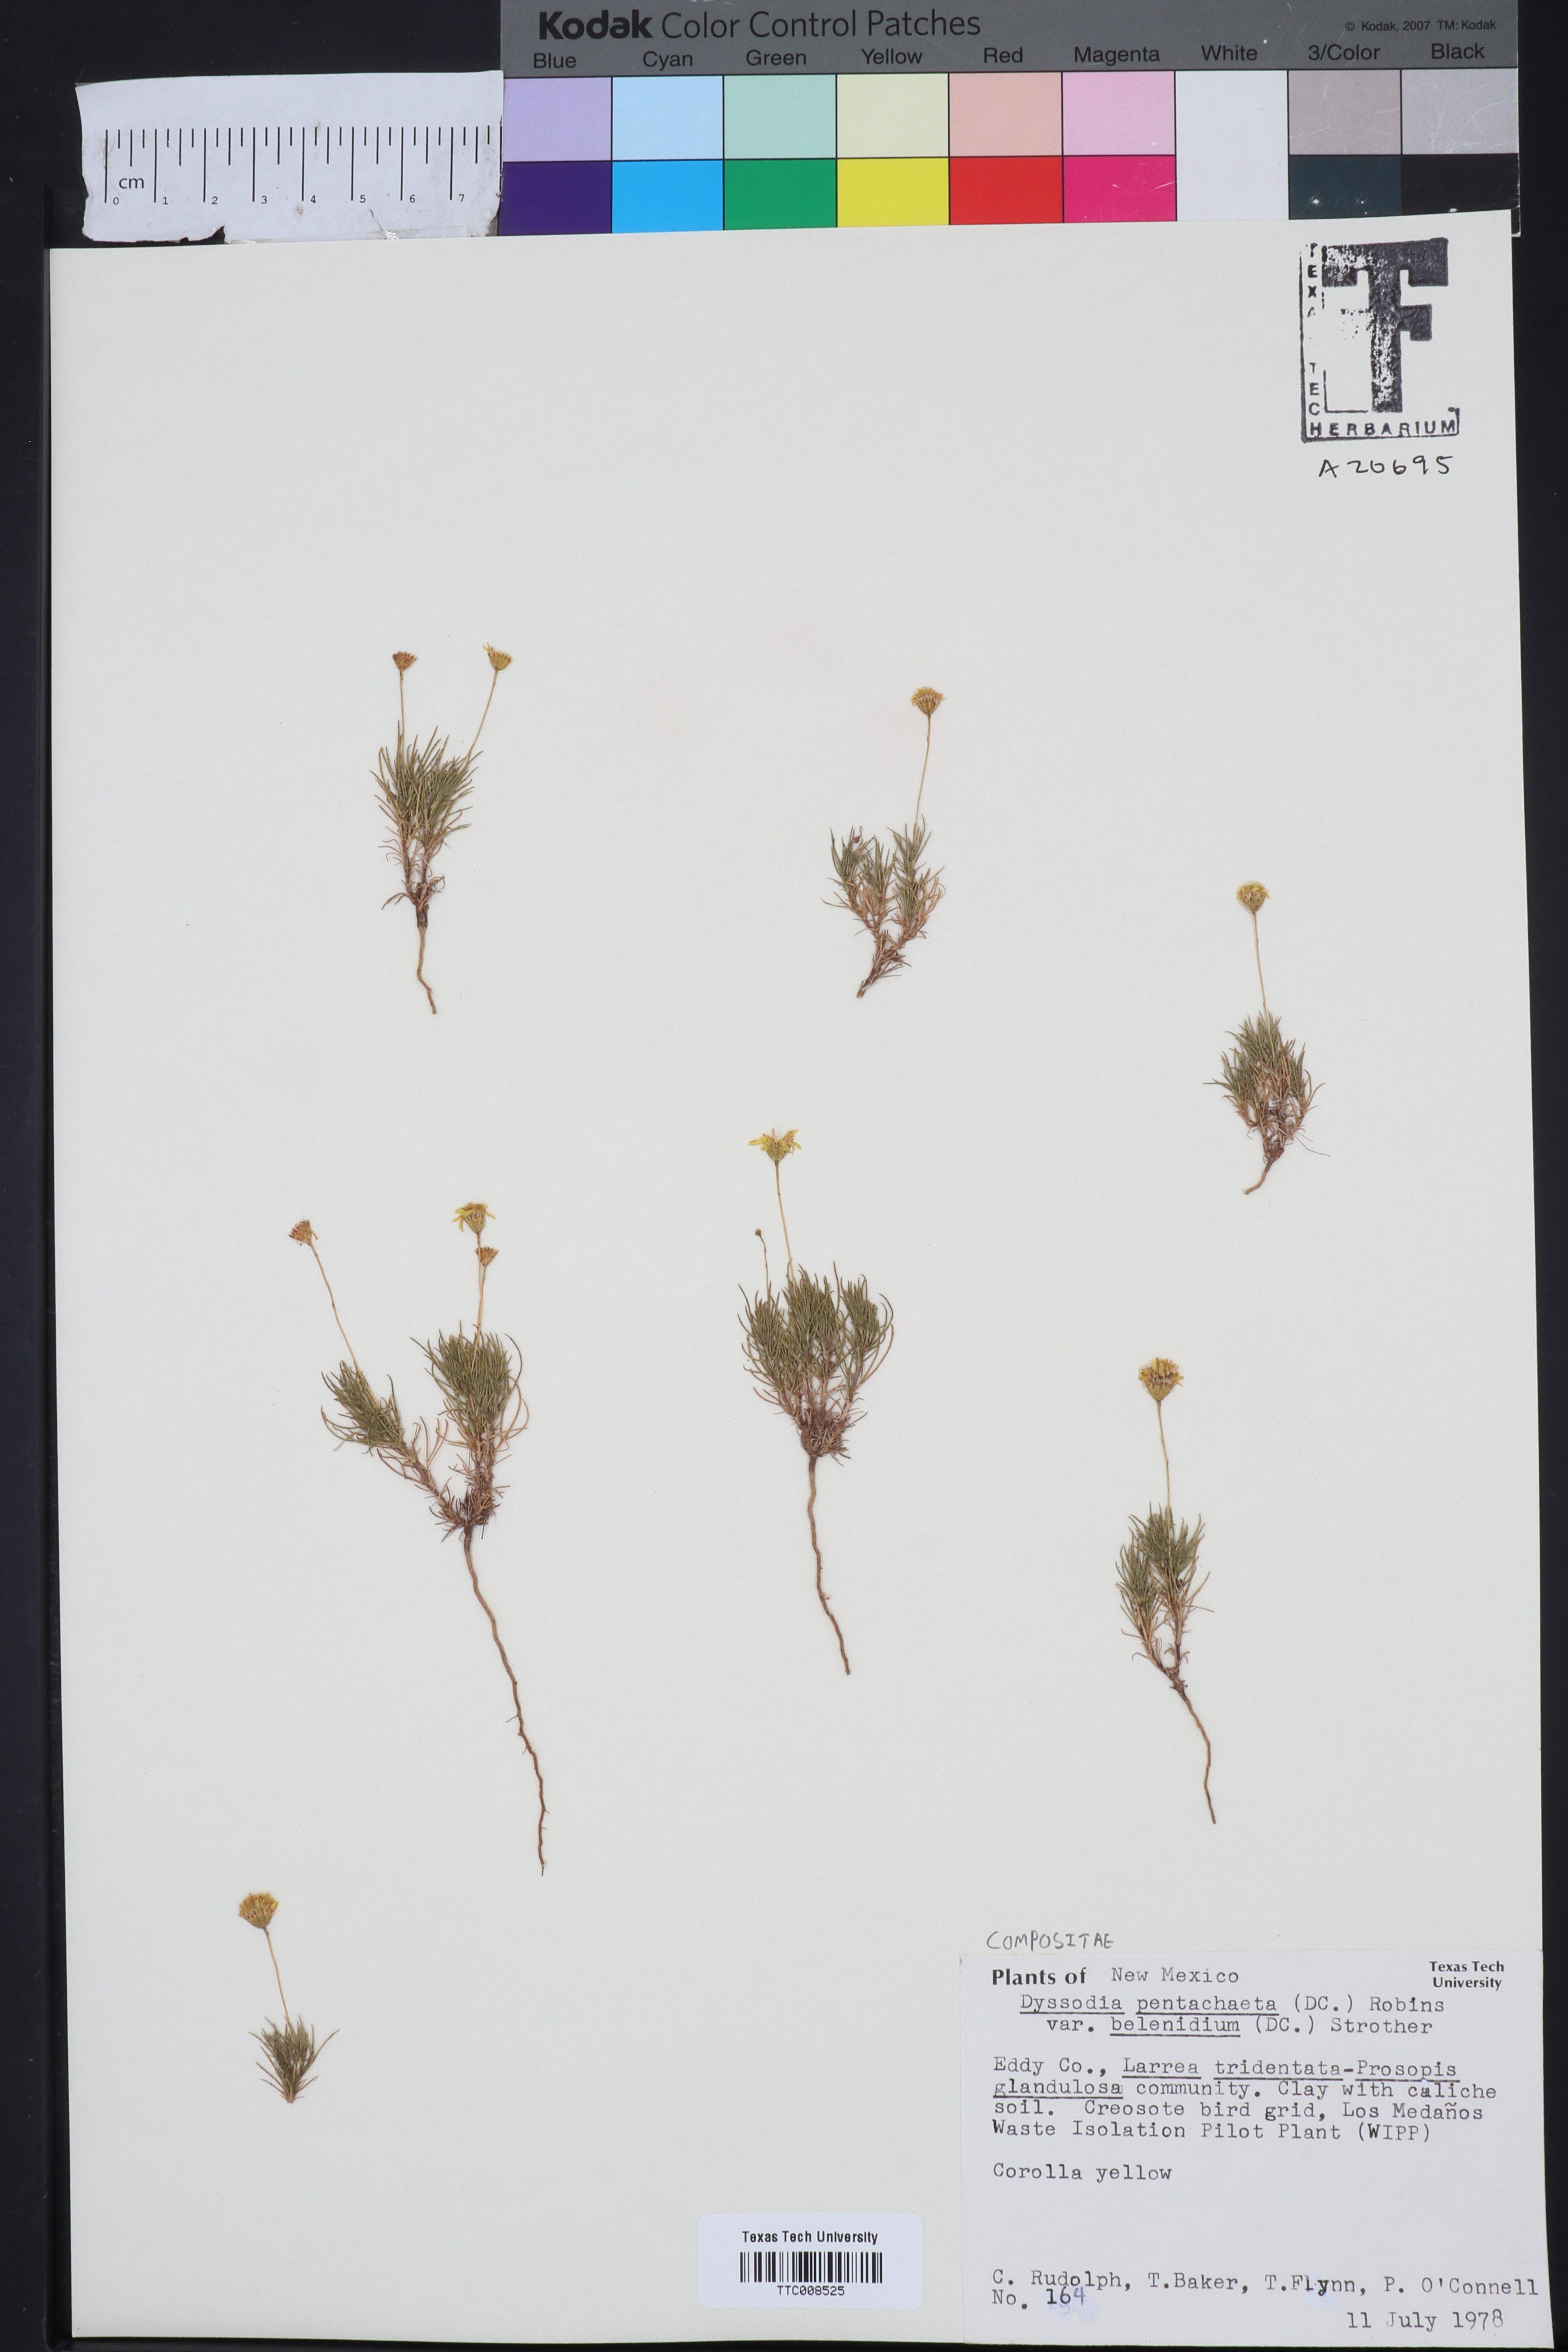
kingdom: Plantae
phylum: Tracheophyta
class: Magnoliopsida
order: Asterales
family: Asteraceae
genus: Thymophylla
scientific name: Thymophylla pentachaeta
